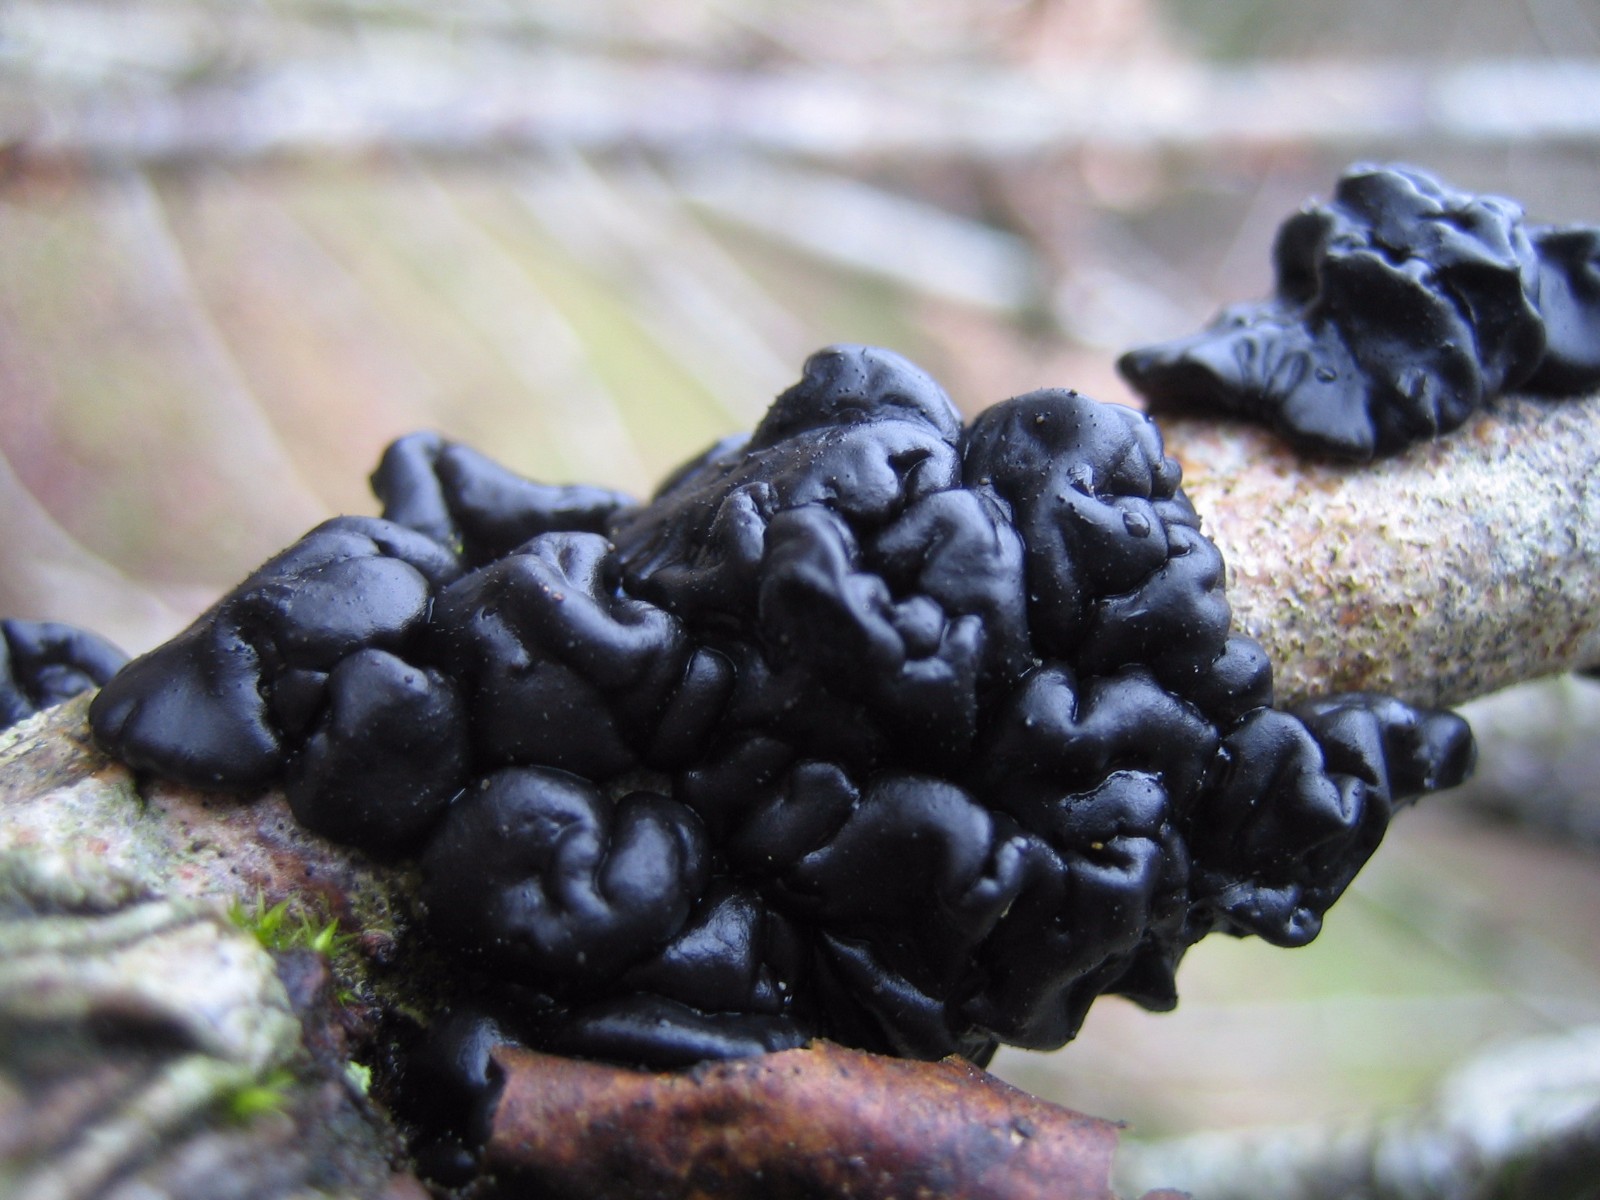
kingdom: Fungi
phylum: Basidiomycota
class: Agaricomycetes
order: Auriculariales
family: Auriculariaceae
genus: Exidia
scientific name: Exidia nigricans
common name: almindelig bævretop
